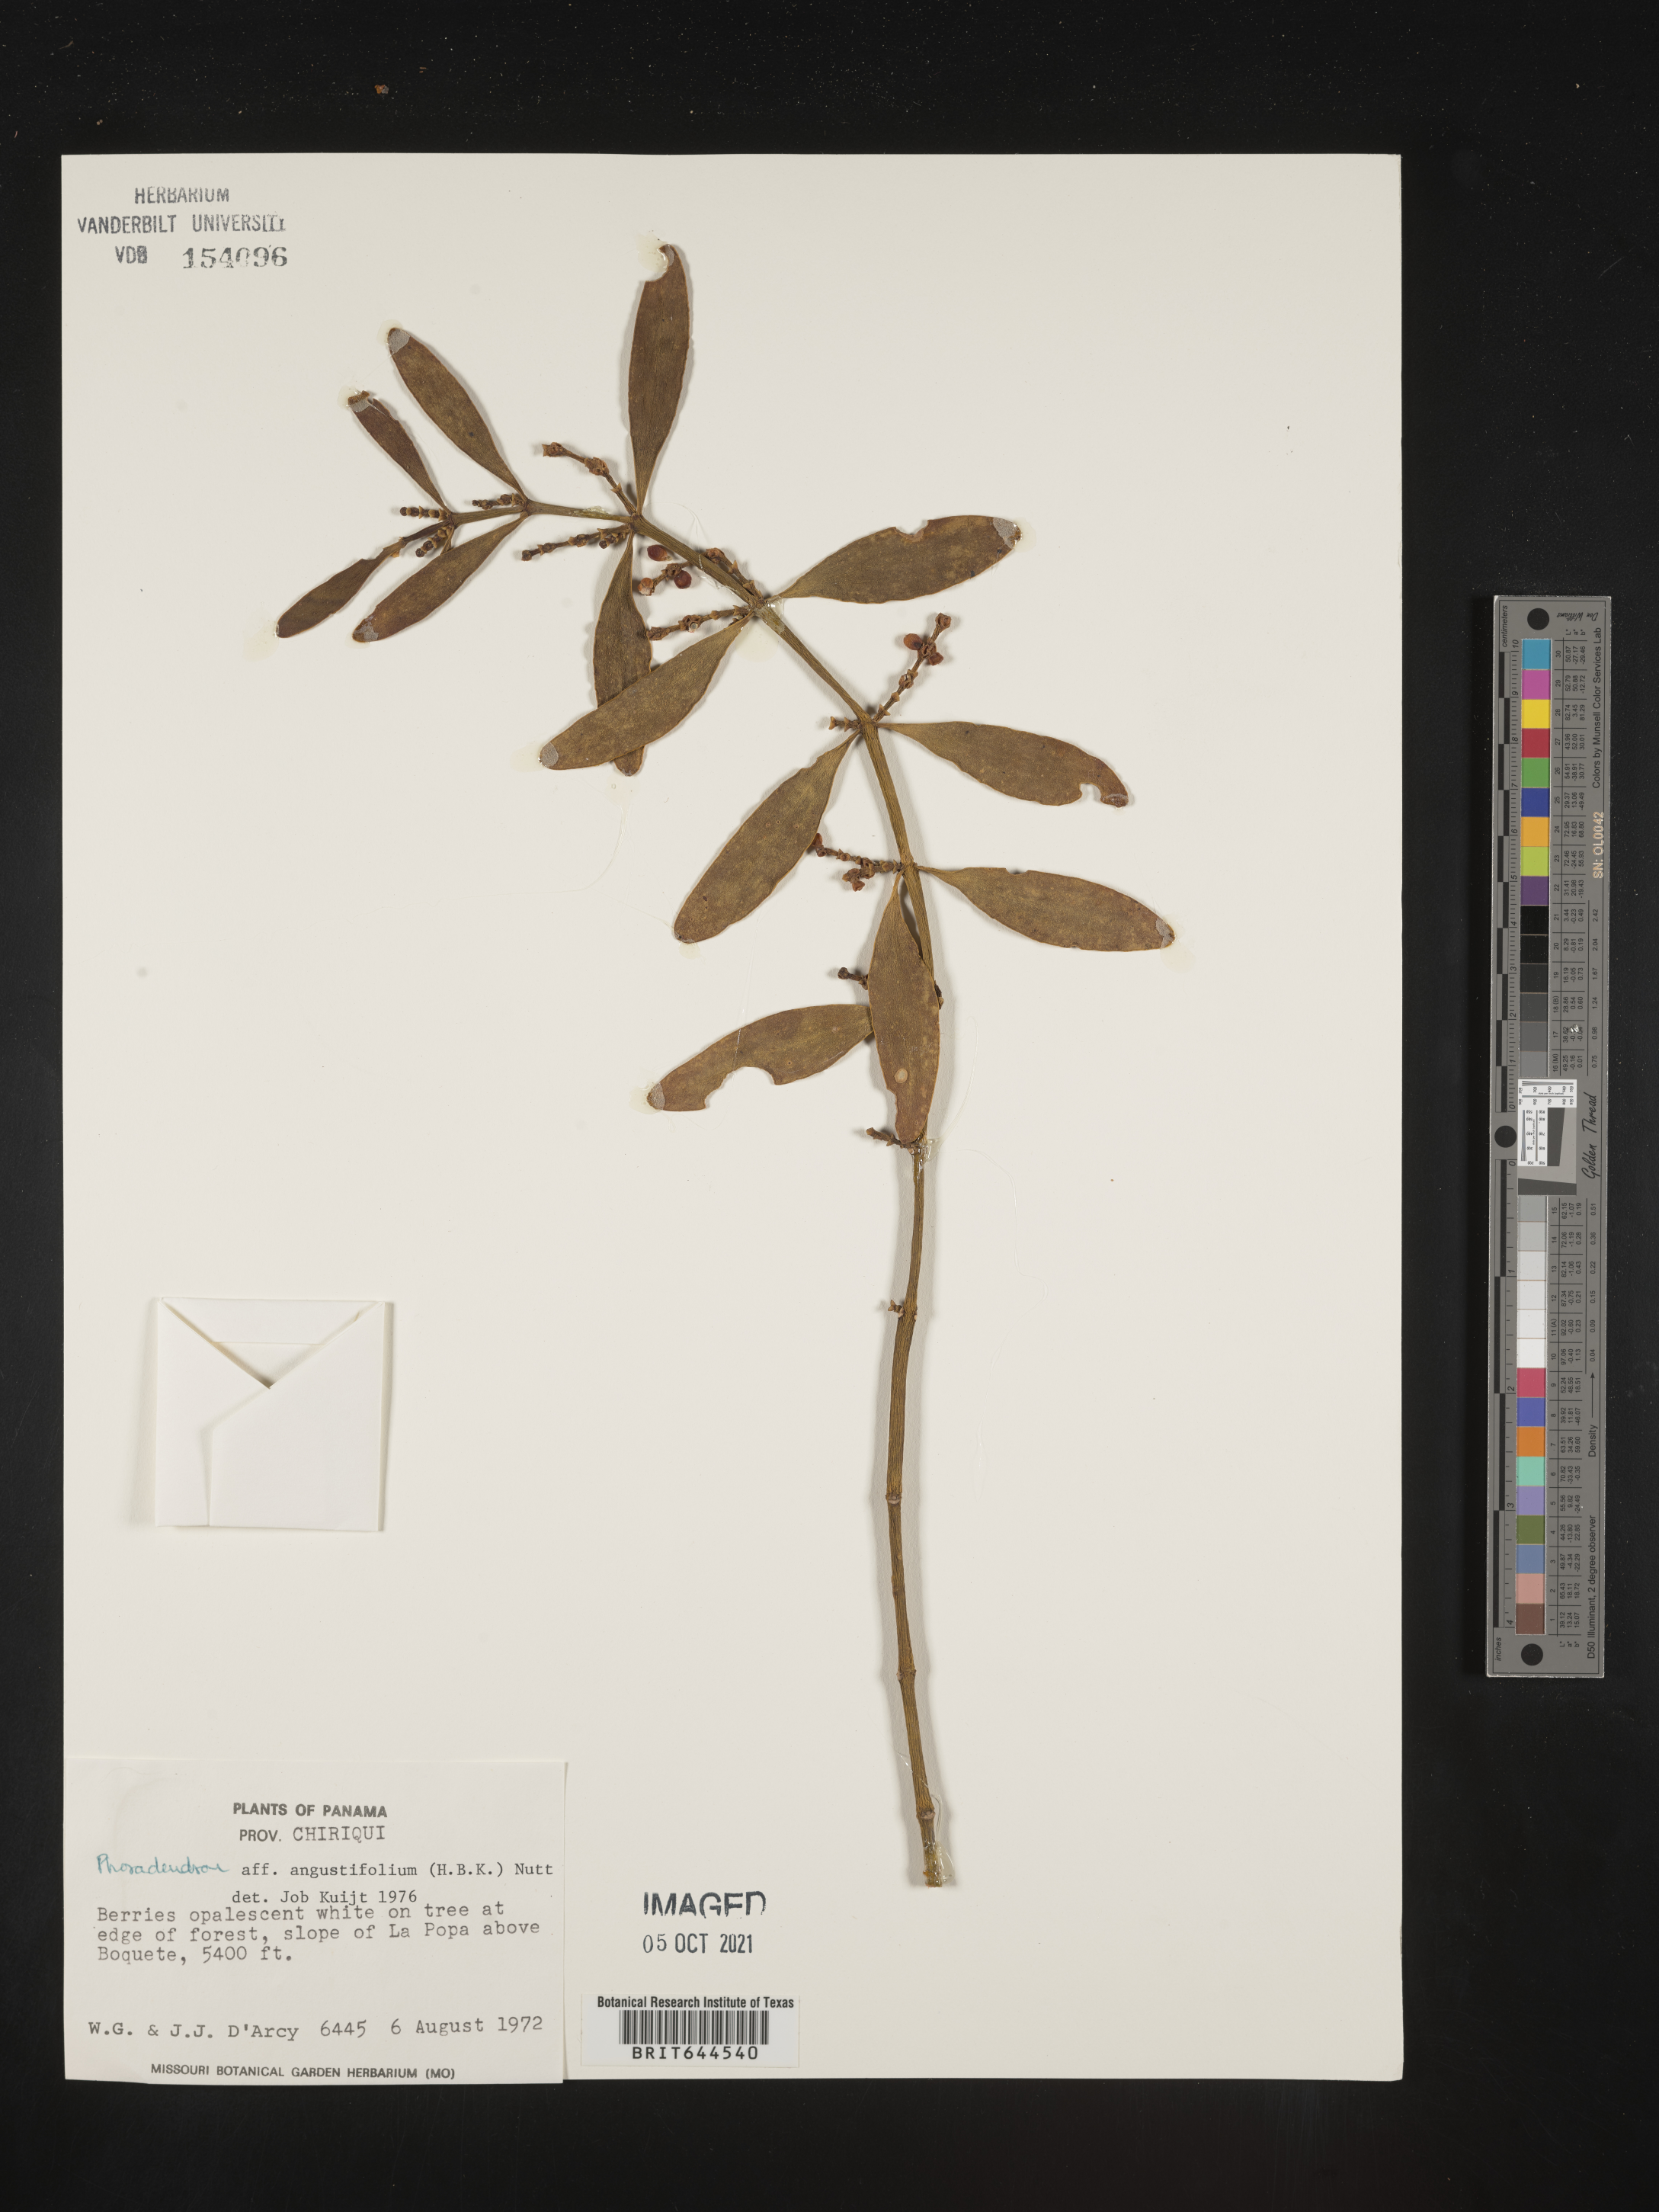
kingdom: Plantae
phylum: Tracheophyta
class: Magnoliopsida
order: Santalales
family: Viscaceae
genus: Phoradendron
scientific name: Phoradendron
